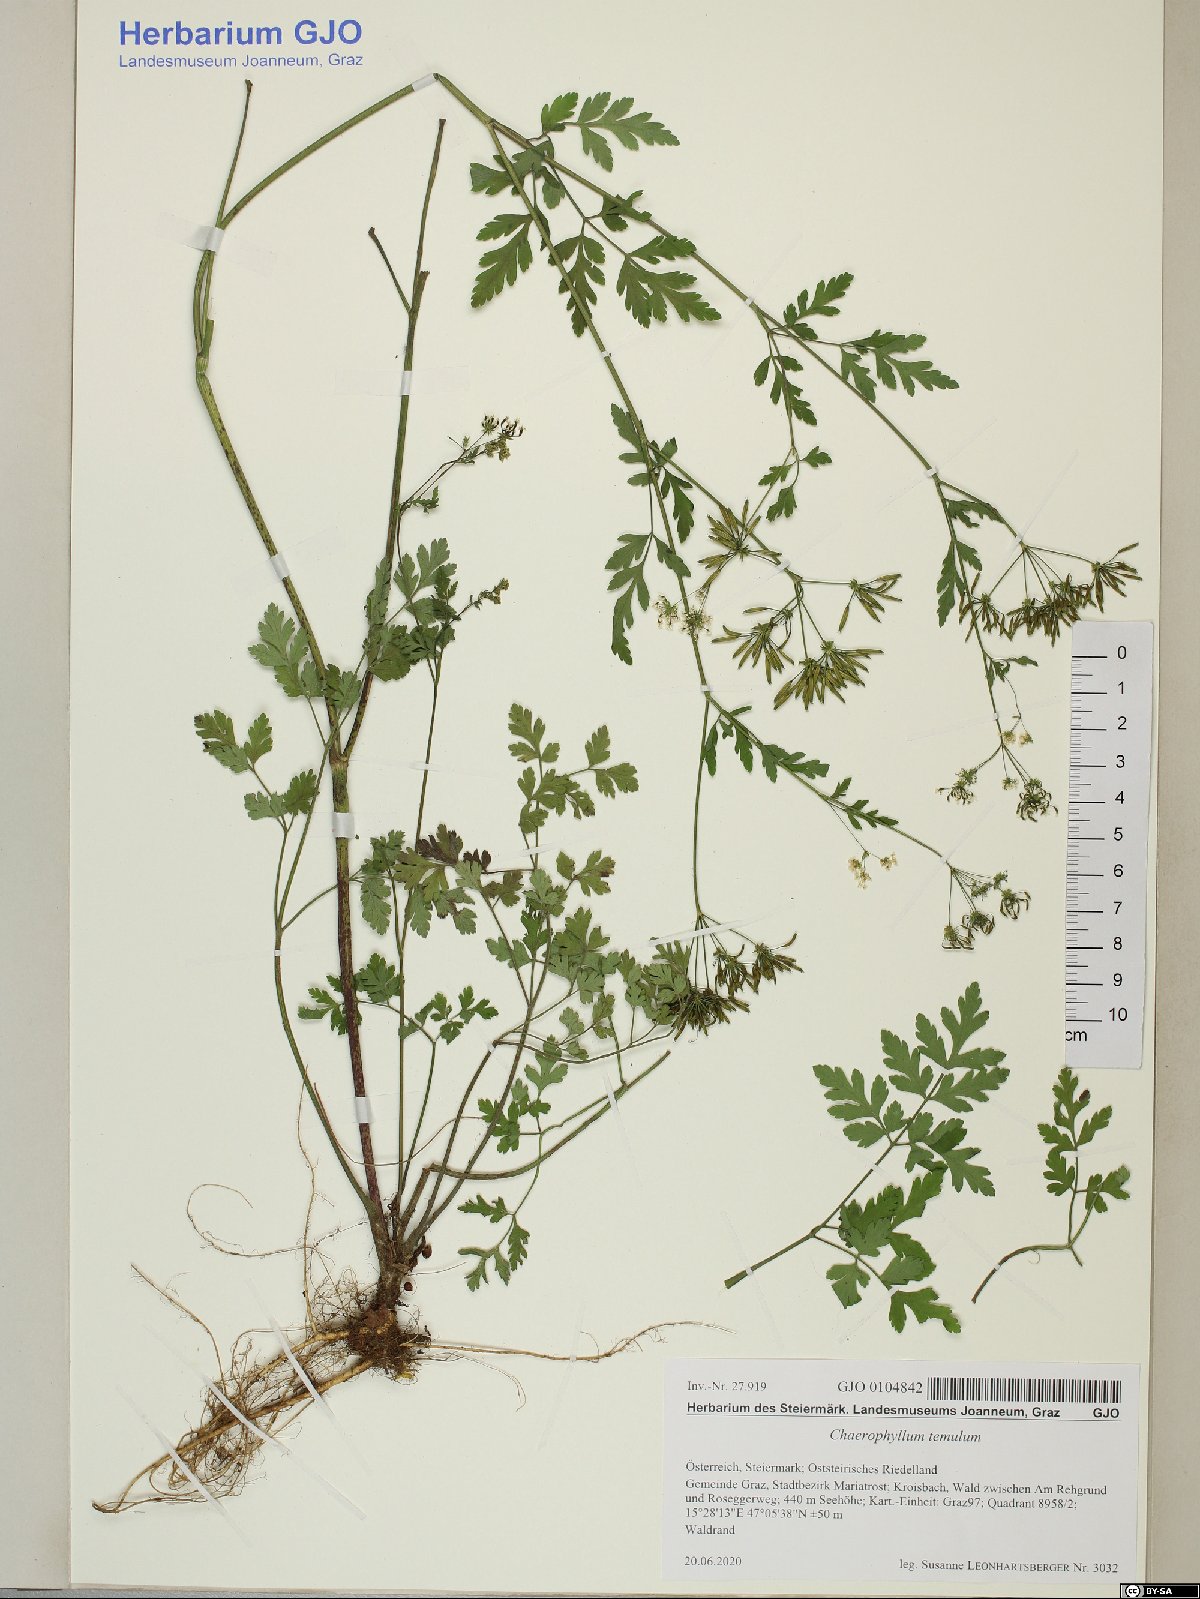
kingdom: Plantae
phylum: Tracheophyta
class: Magnoliopsida
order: Apiales
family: Apiaceae
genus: Chaerophyllum
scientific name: Chaerophyllum temulum
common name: Rough chervil
